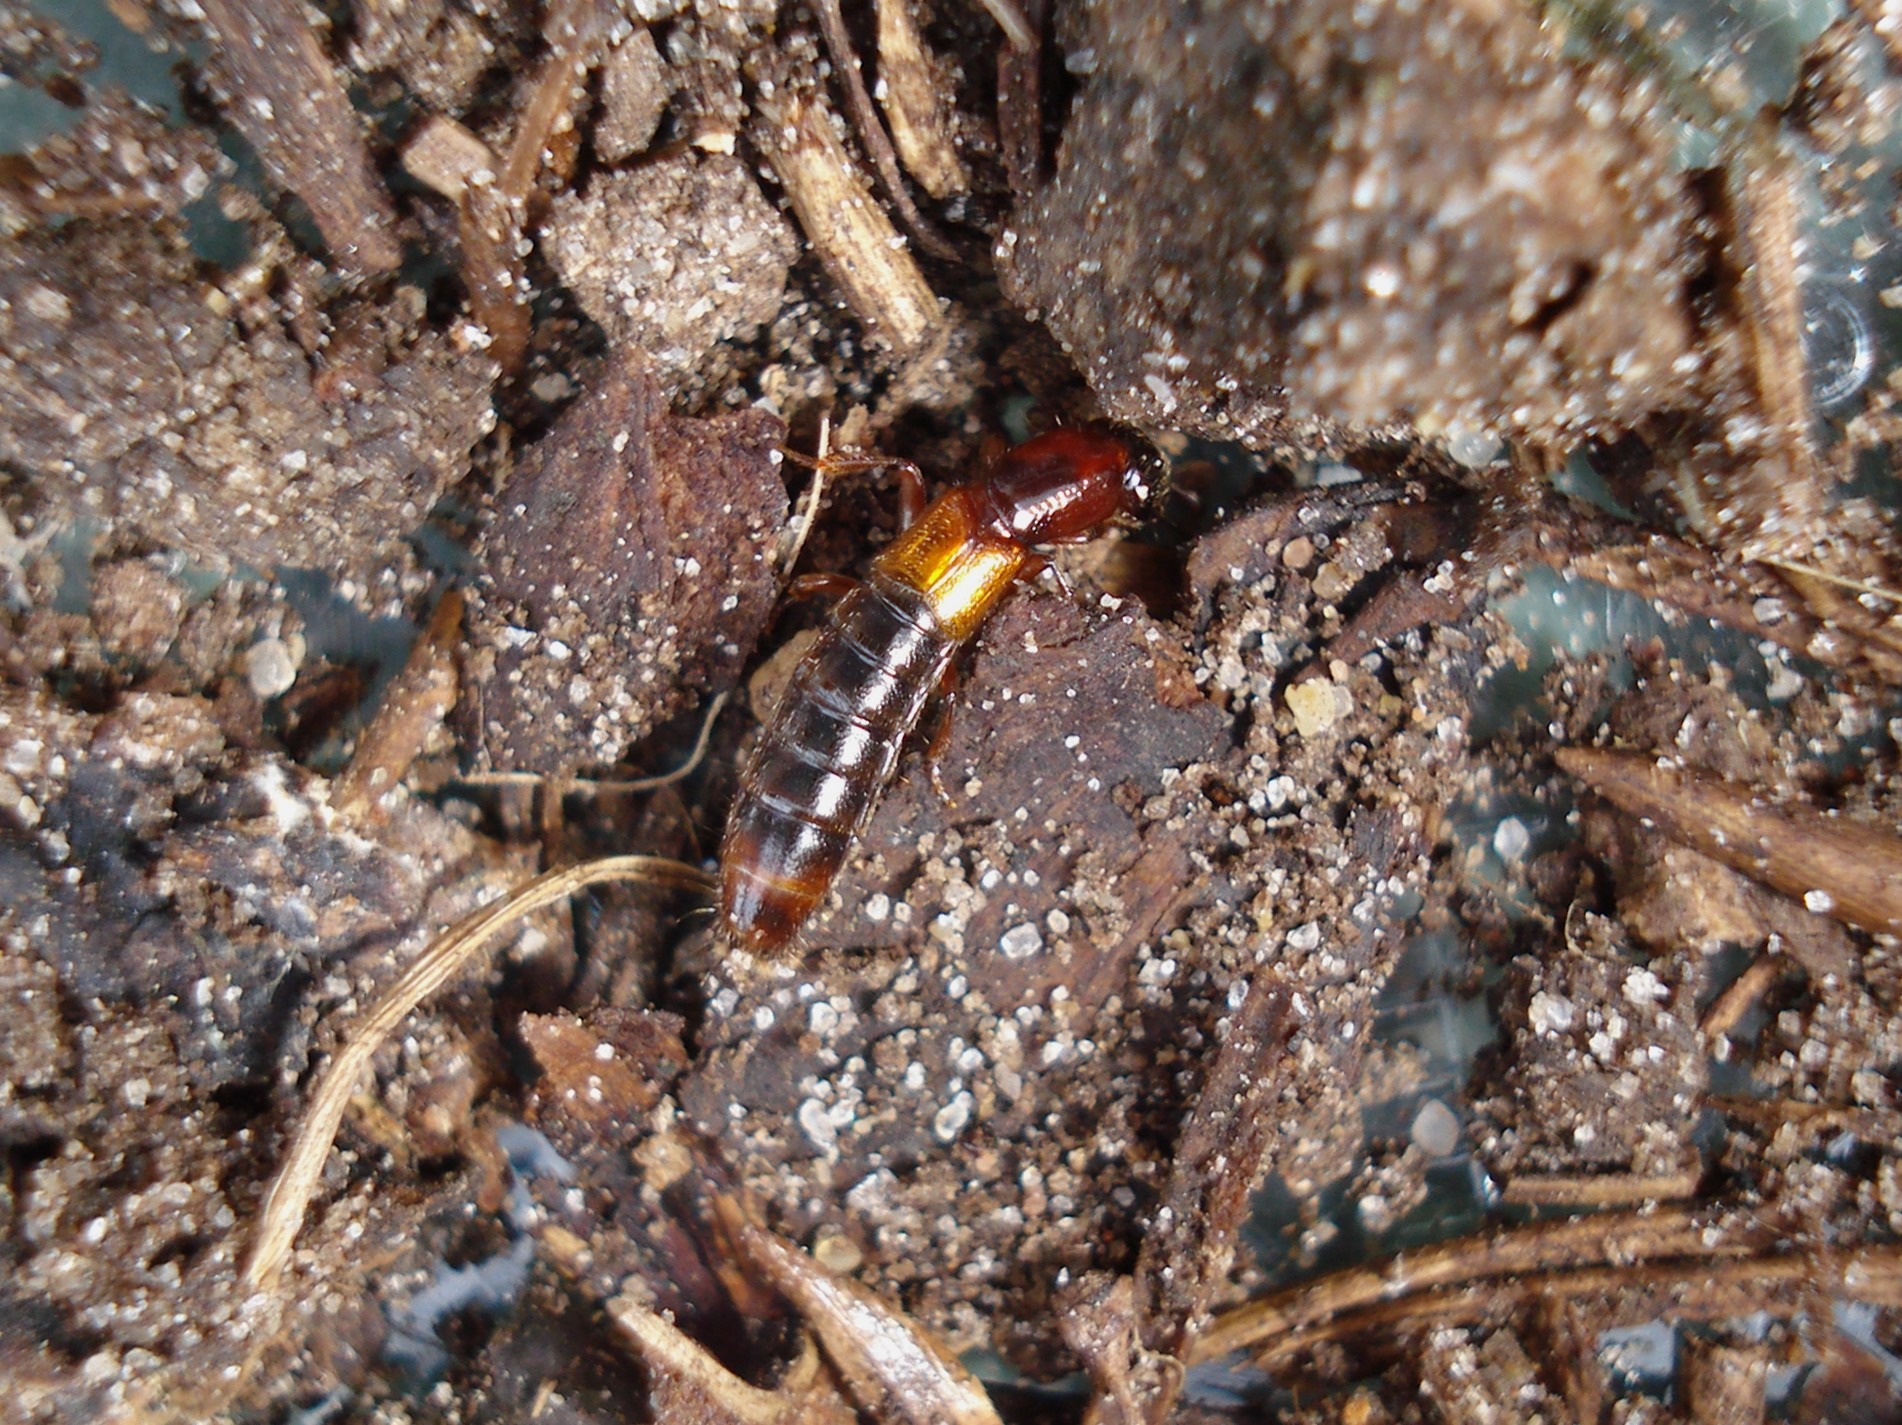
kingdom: Animalia
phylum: Arthropoda
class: Insecta
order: Coleoptera
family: Staphylinidae
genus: Xantholinus
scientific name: Xantholinus tricolor
